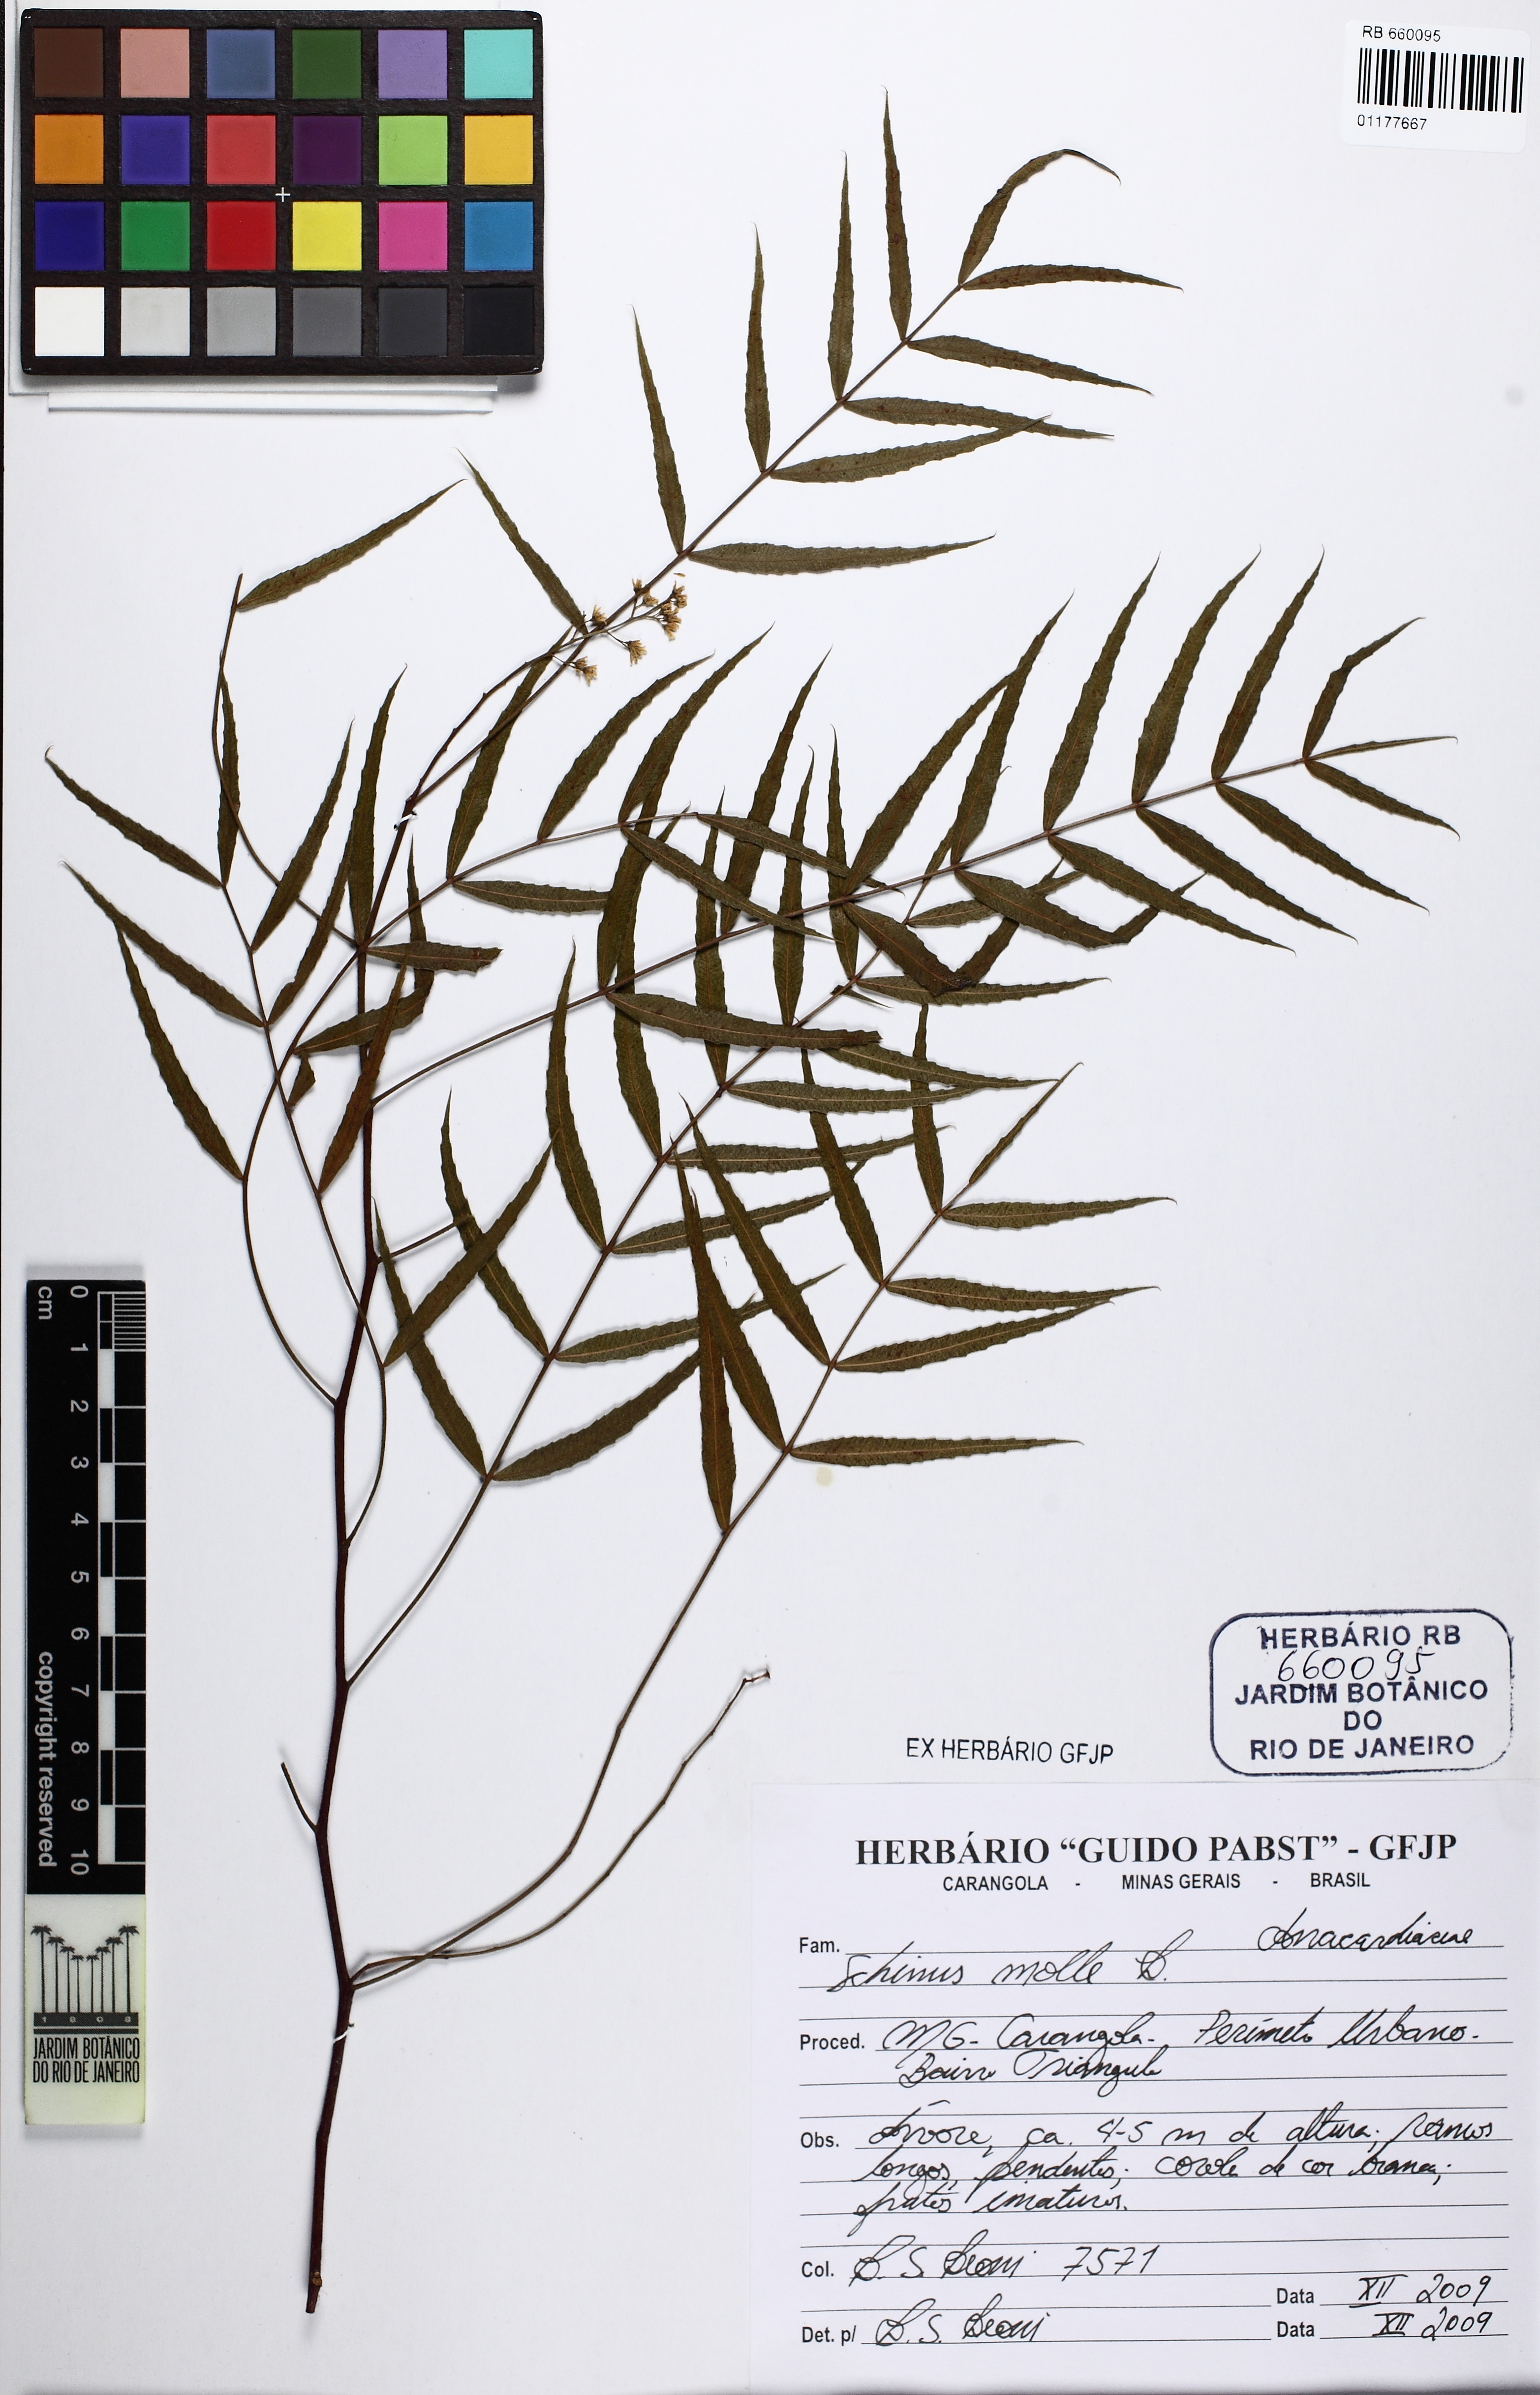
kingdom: Plantae
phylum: Tracheophyta
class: Magnoliopsida
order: Sapindales
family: Anacardiaceae
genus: Schinus
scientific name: Schinus molle
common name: Peruvian peppertree
